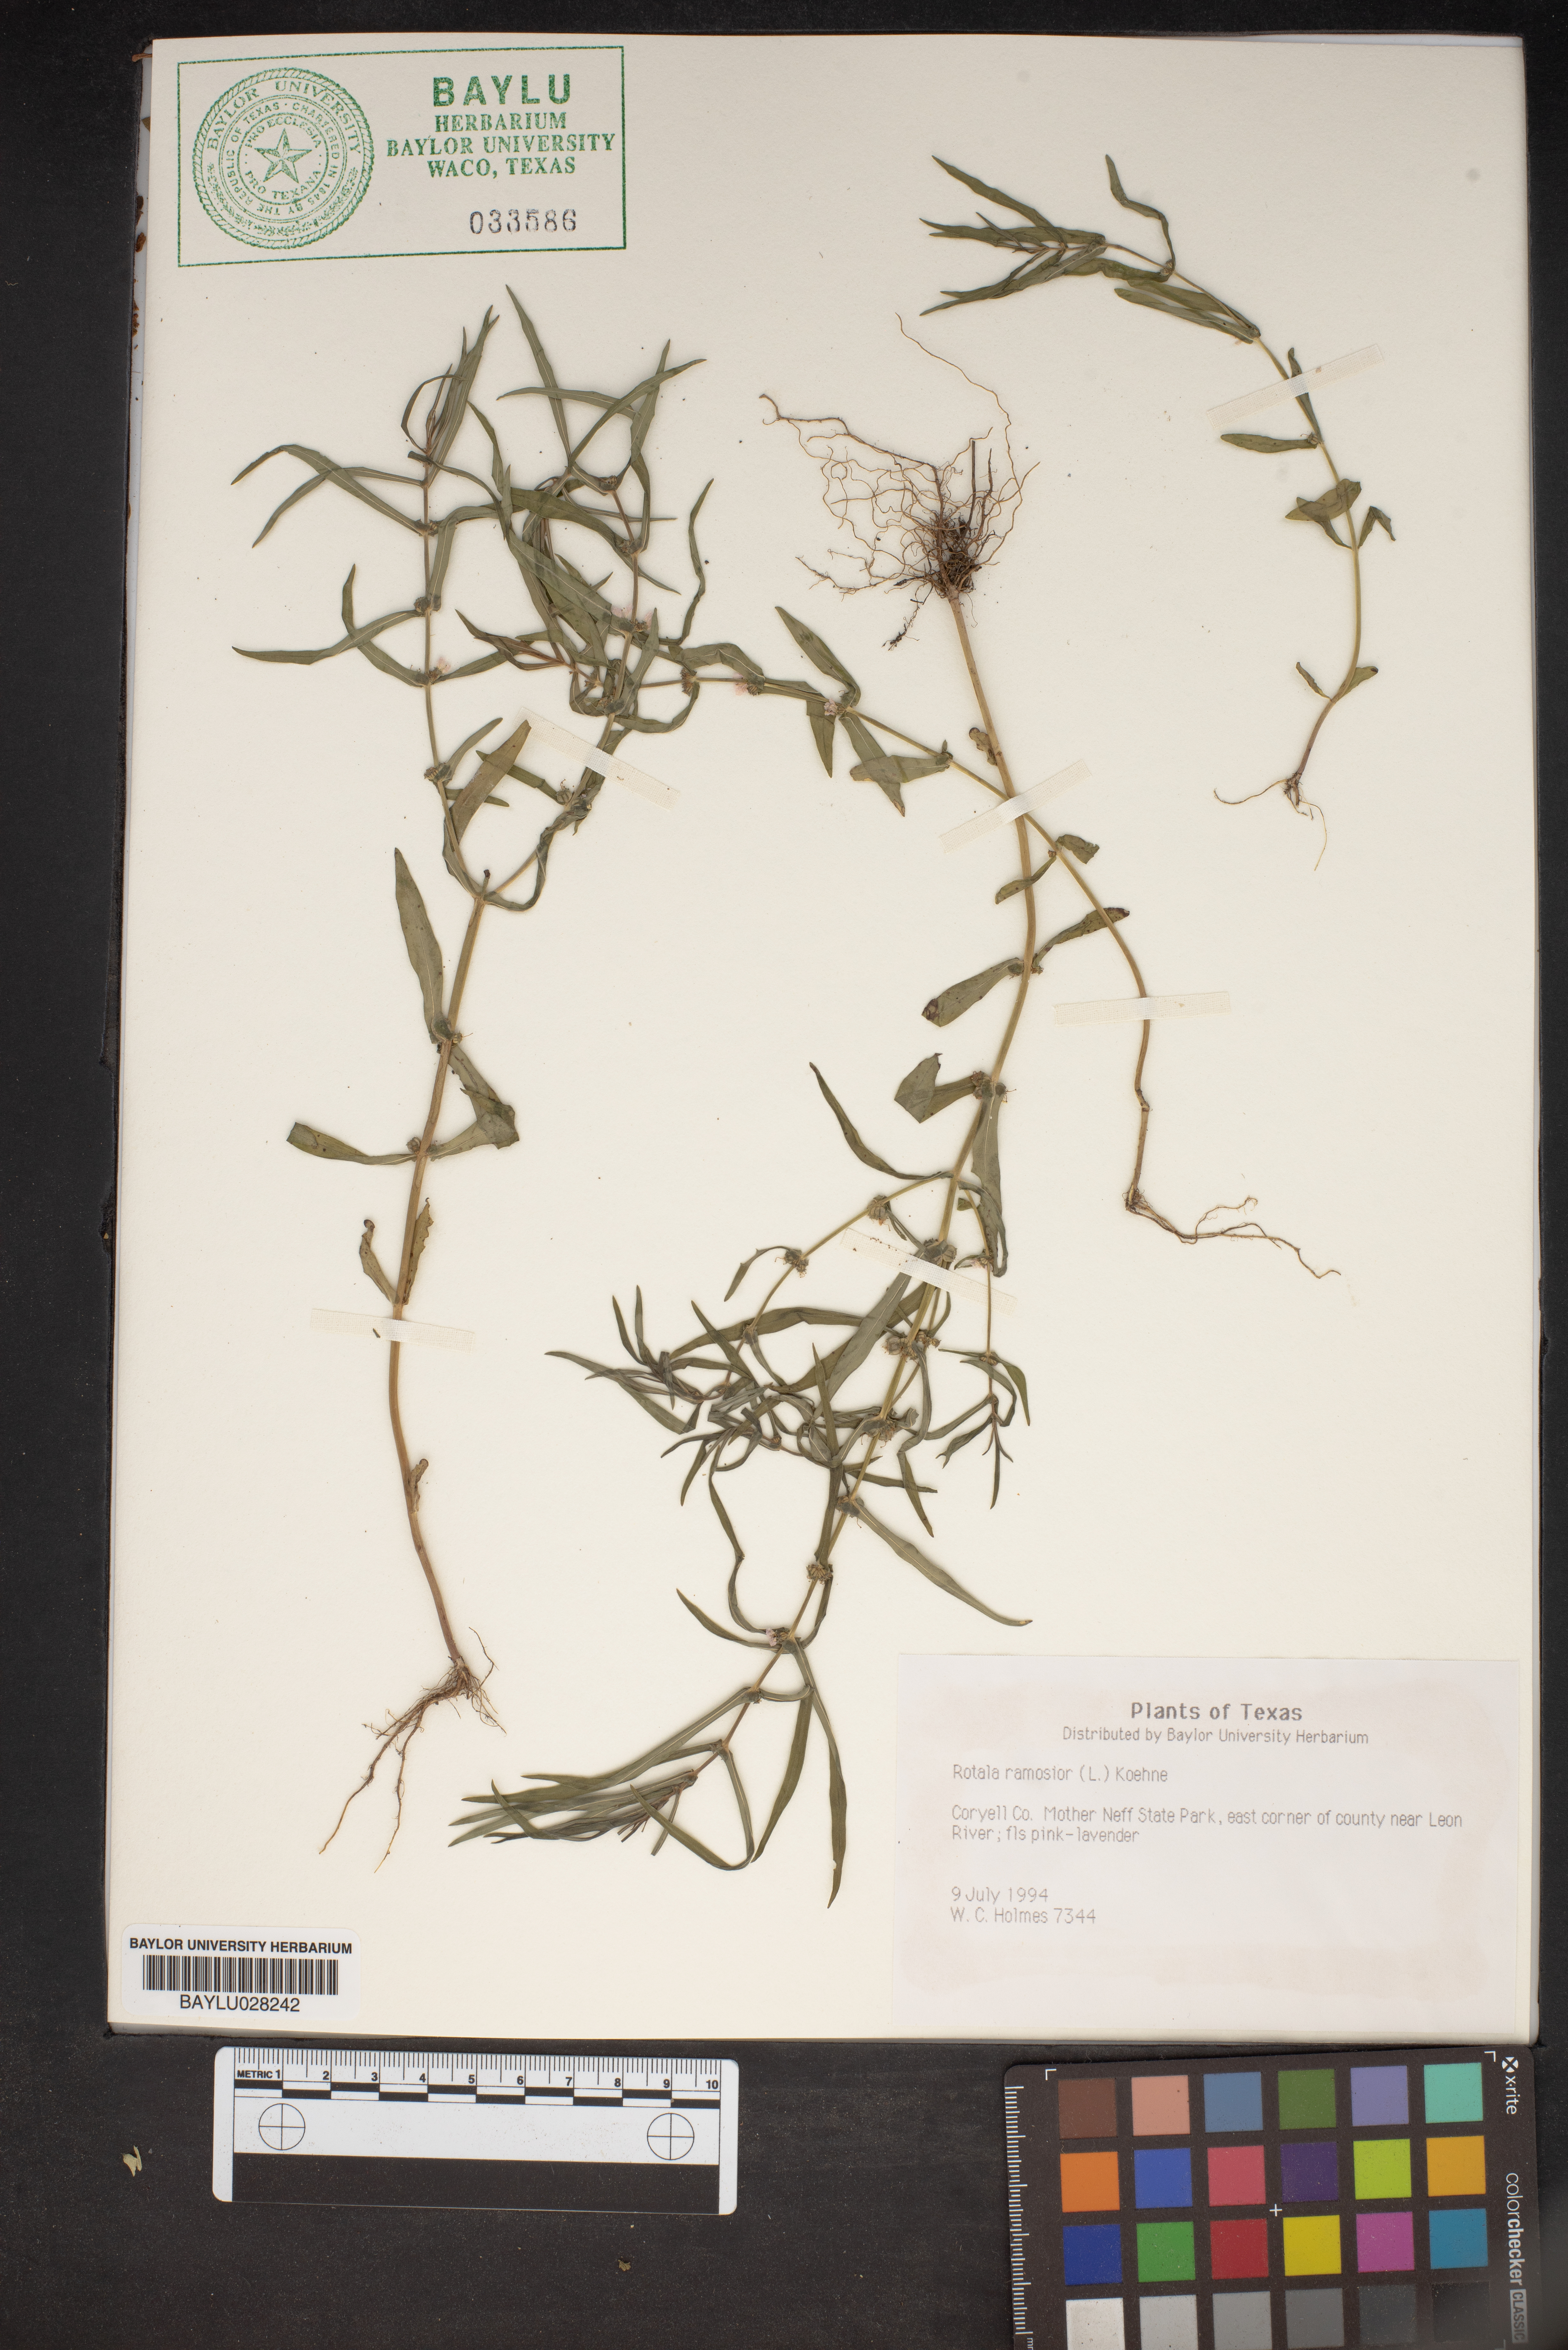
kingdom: Plantae
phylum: Tracheophyta
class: Magnoliopsida
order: Myrtales
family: Lythraceae
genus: Rotala
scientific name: Rotala ramosior
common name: Lowland rotala
